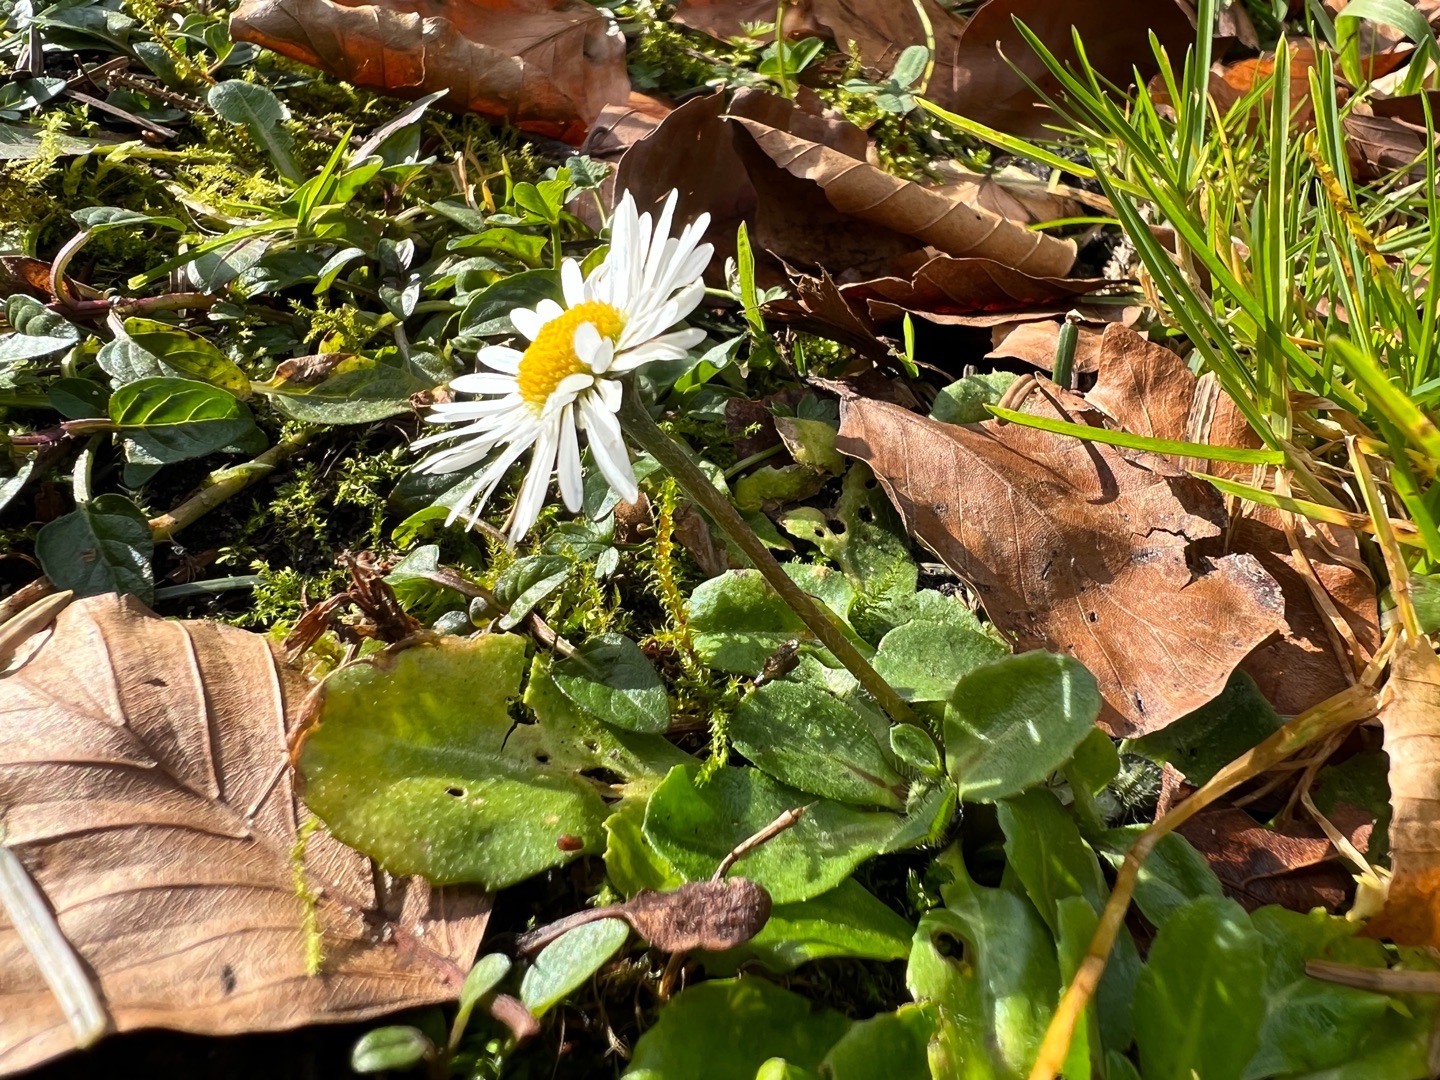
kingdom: Plantae
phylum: Tracheophyta
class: Magnoliopsida
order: Asterales
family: Asteraceae
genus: Bellis
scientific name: Bellis perennis
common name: Tusindfryd
